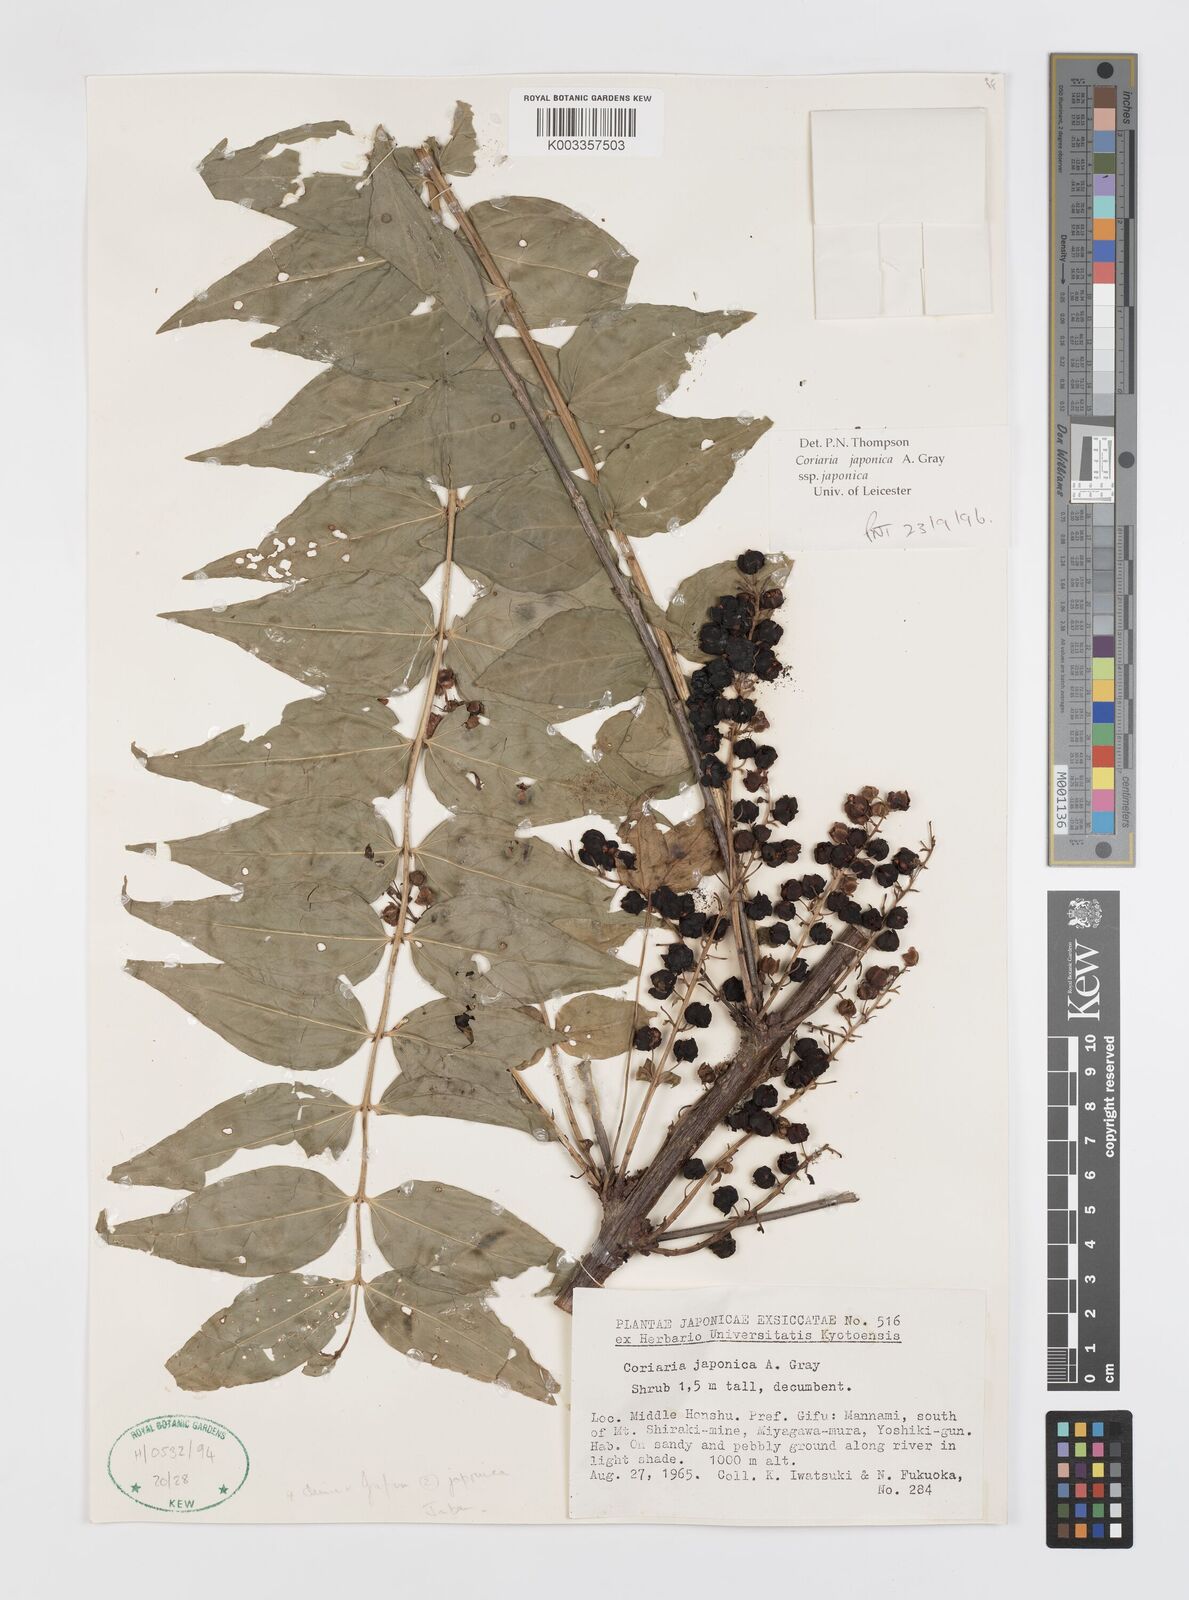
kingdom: Plantae
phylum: Tracheophyta
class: Magnoliopsida
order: Cucurbitales
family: Coriariaceae
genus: Coriaria
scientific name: Coriaria japonica
